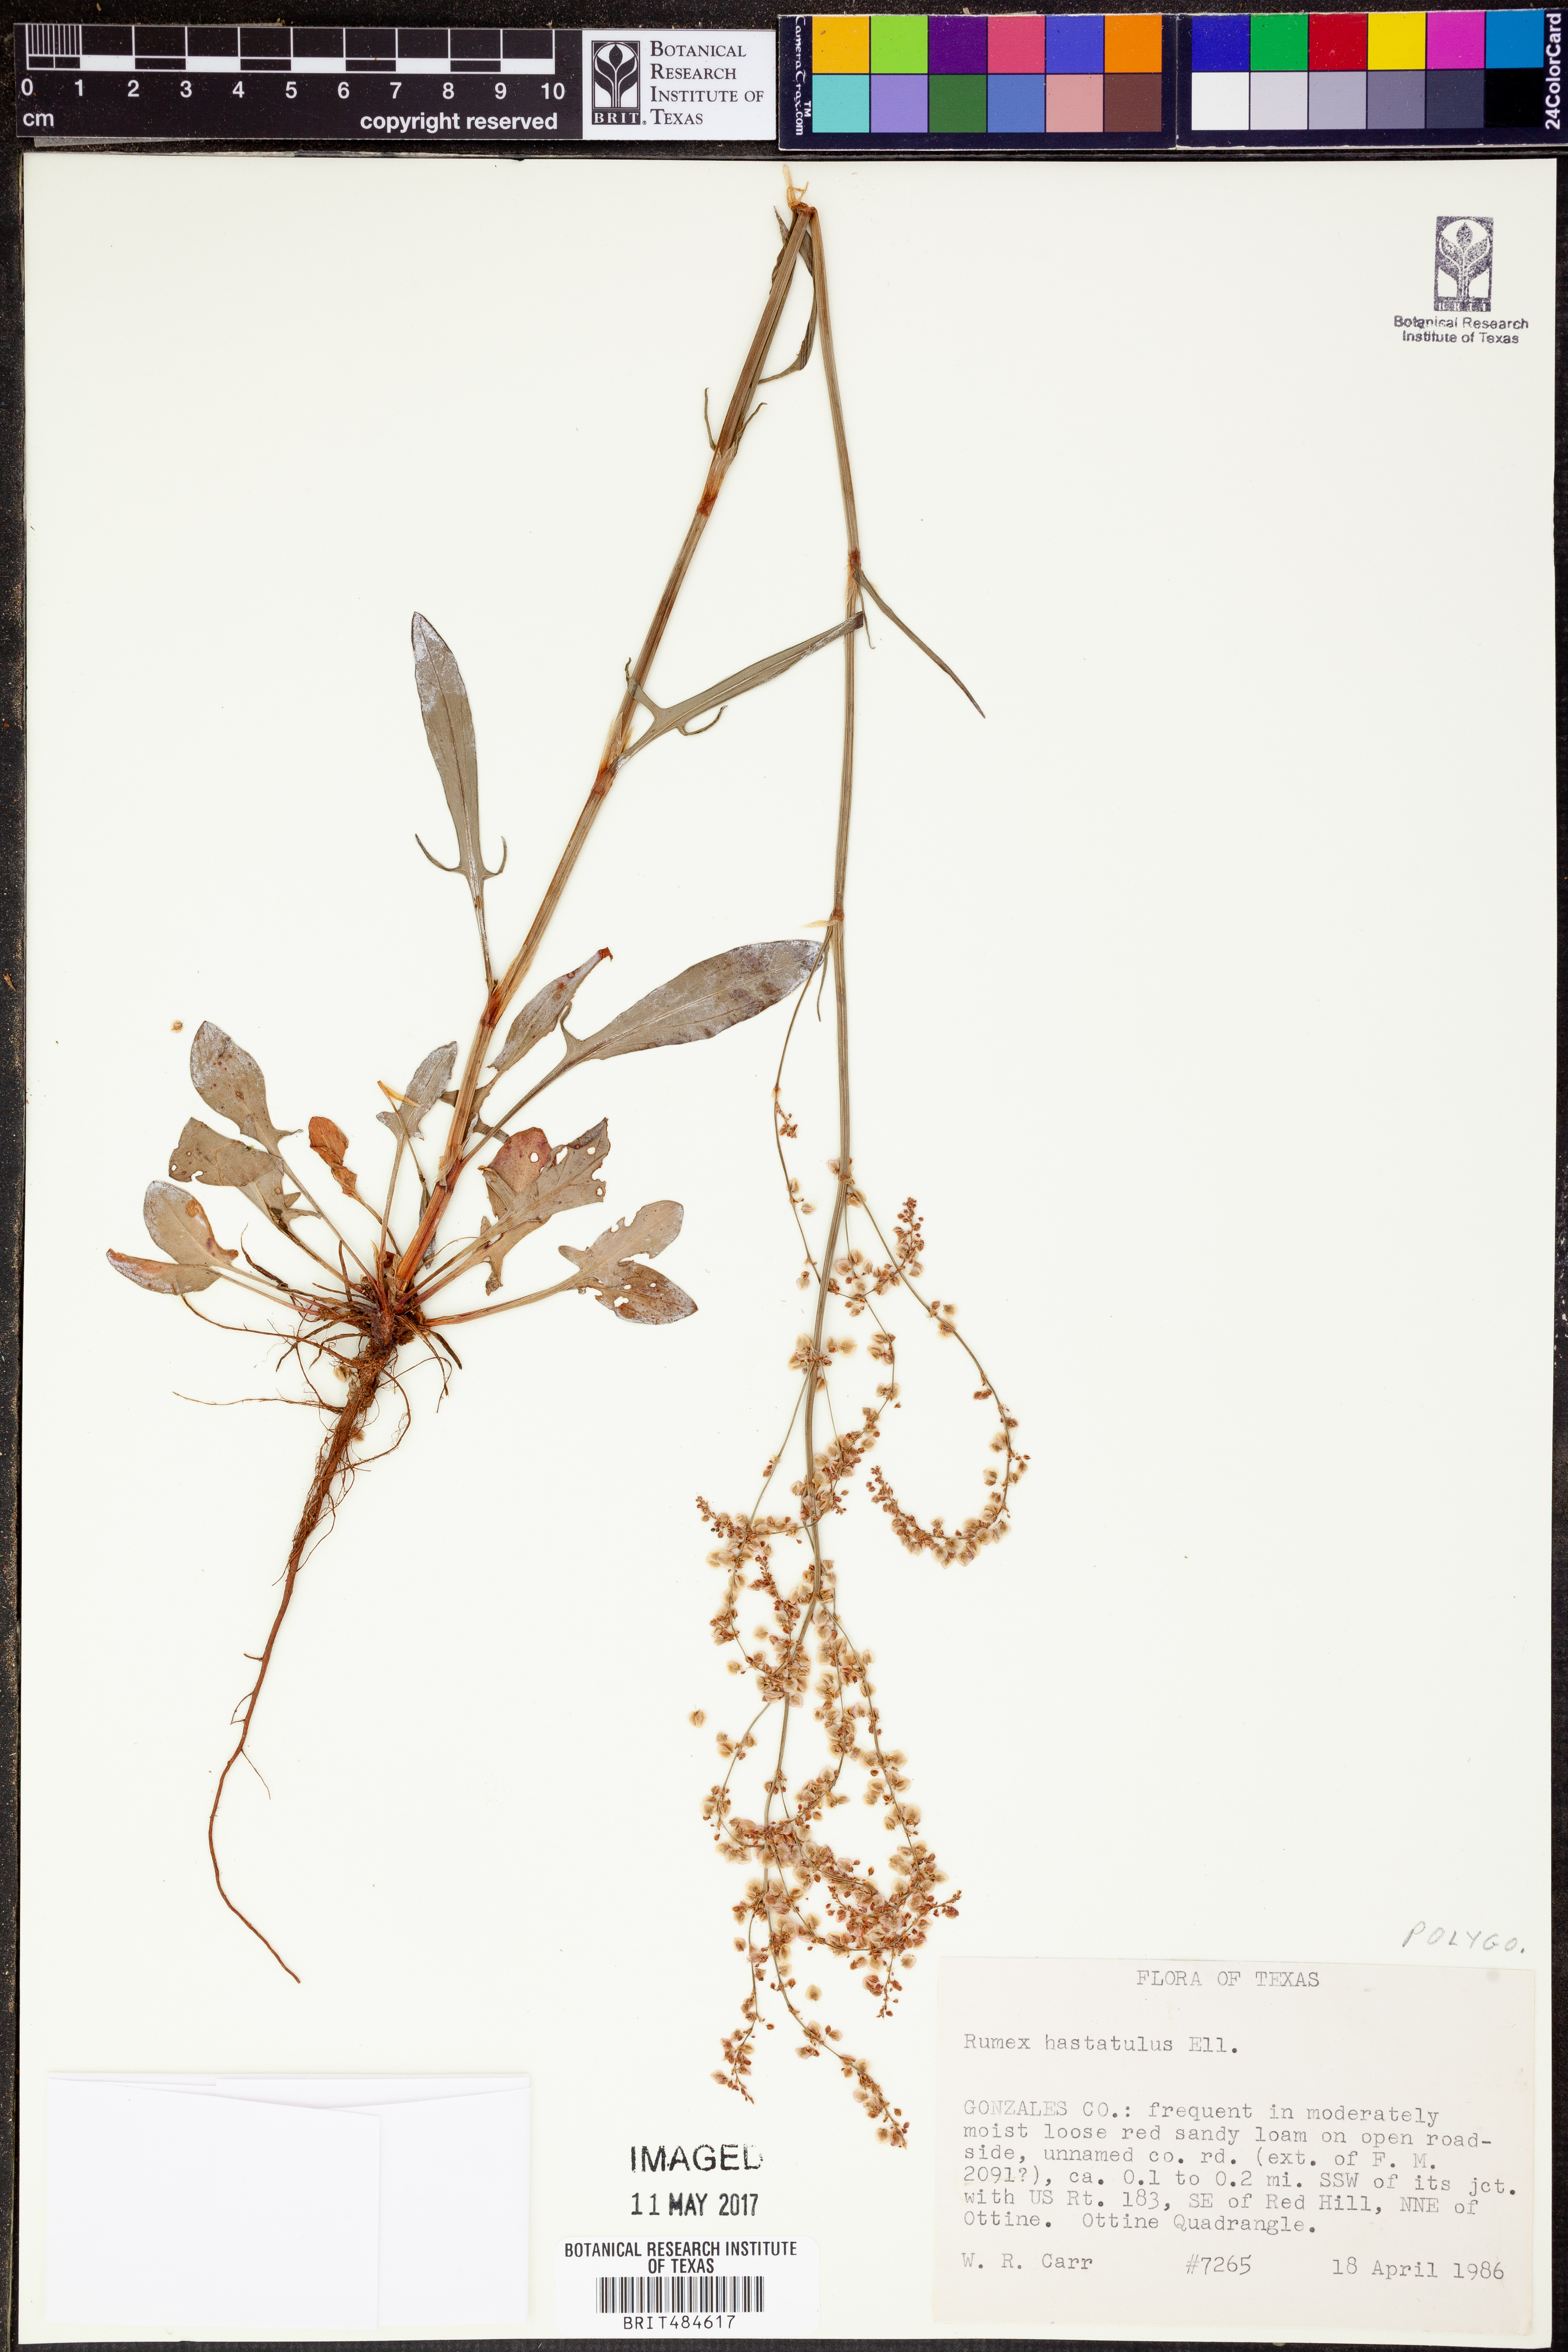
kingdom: Plantae
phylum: Tracheophyta
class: Magnoliopsida
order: Caryophyllales
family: Polygonaceae
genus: Rumex
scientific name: Rumex hastatulus
